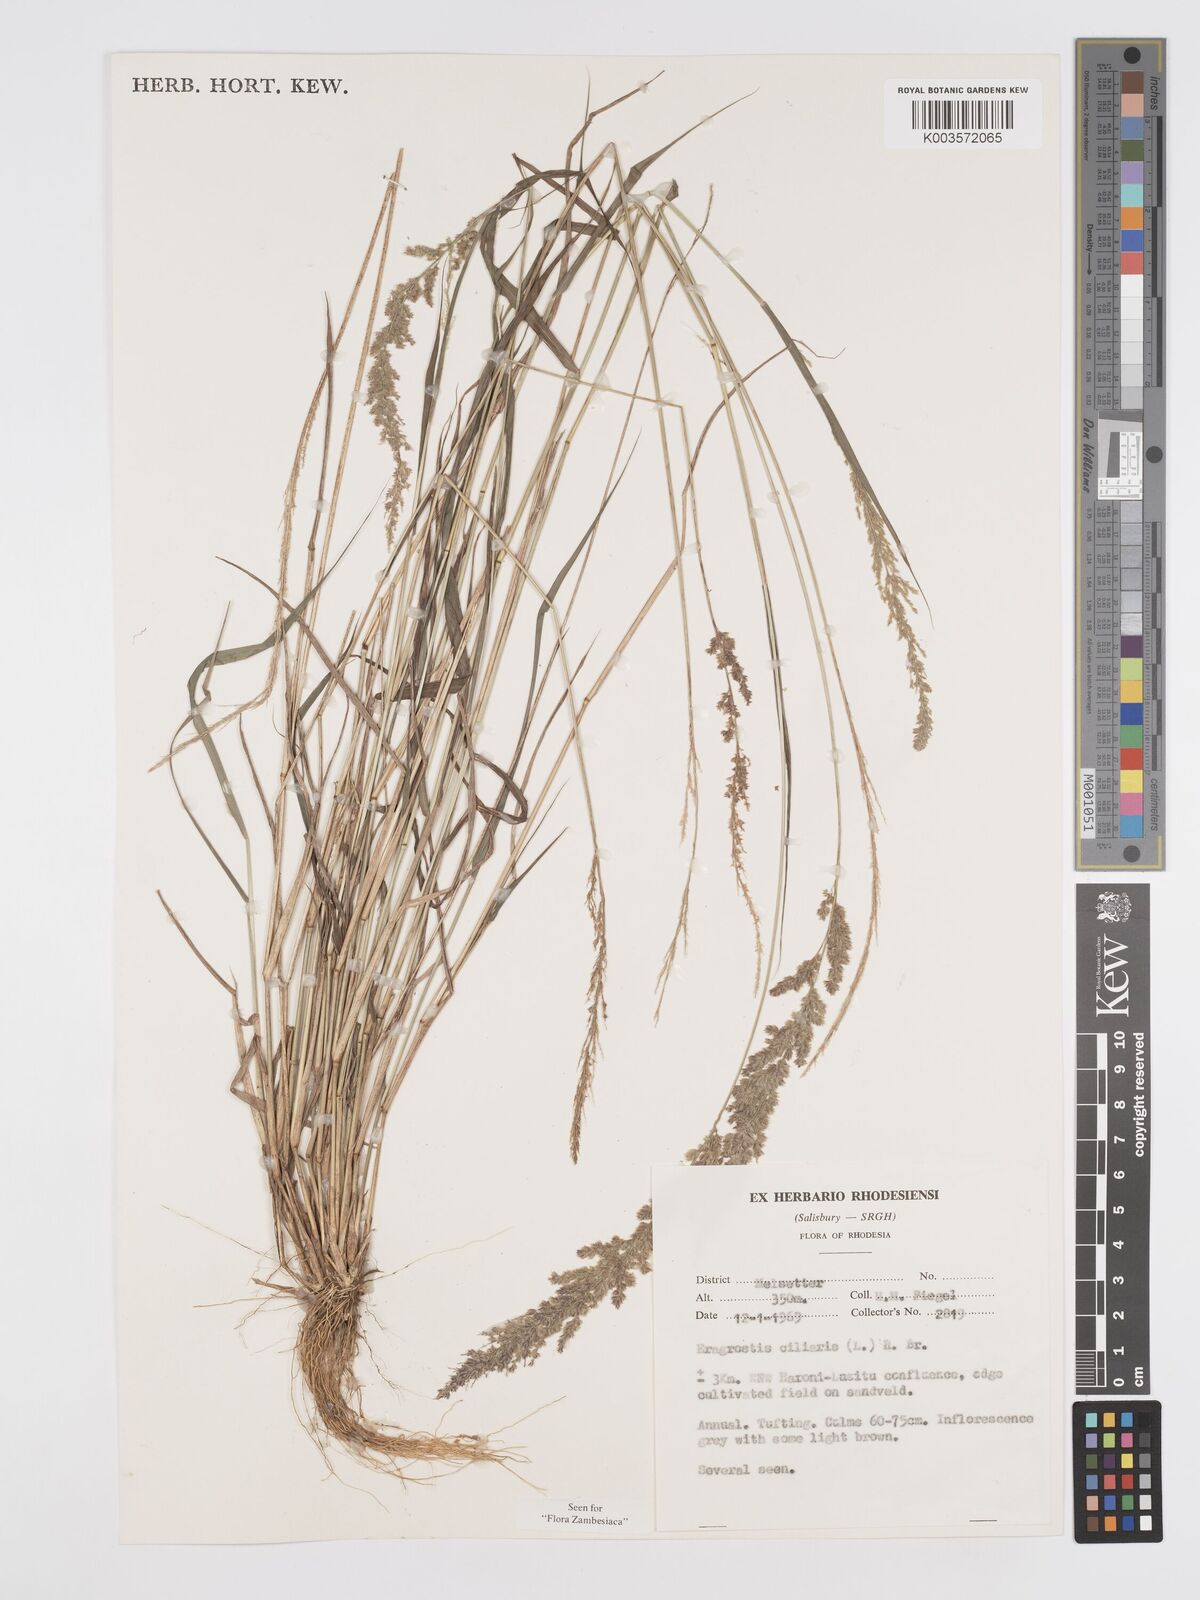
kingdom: Plantae
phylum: Tracheophyta
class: Liliopsida
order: Poales
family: Poaceae
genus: Eragrostis
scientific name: Eragrostis ciliaris
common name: Gophertail lovegrass
